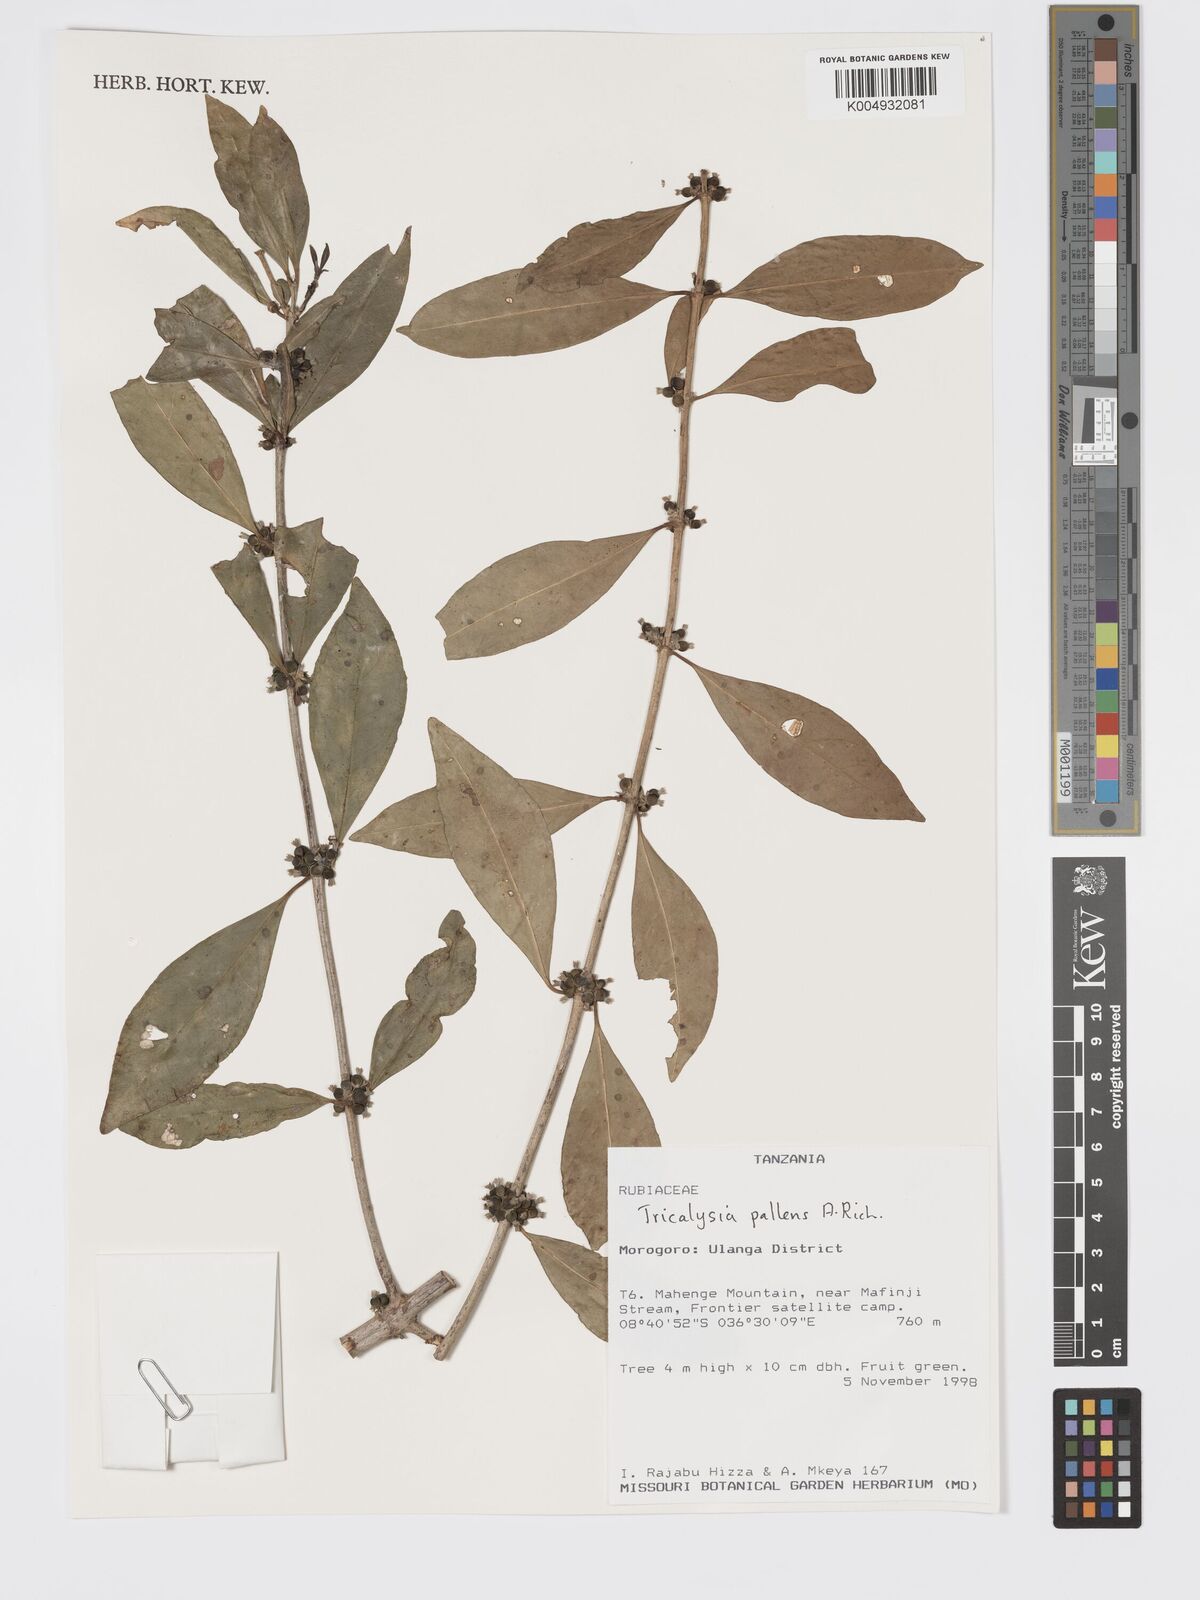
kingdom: Plantae
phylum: Tracheophyta
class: Magnoliopsida
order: Gentianales
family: Rubiaceae
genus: Tricalysia
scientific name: Tricalysia pallens
